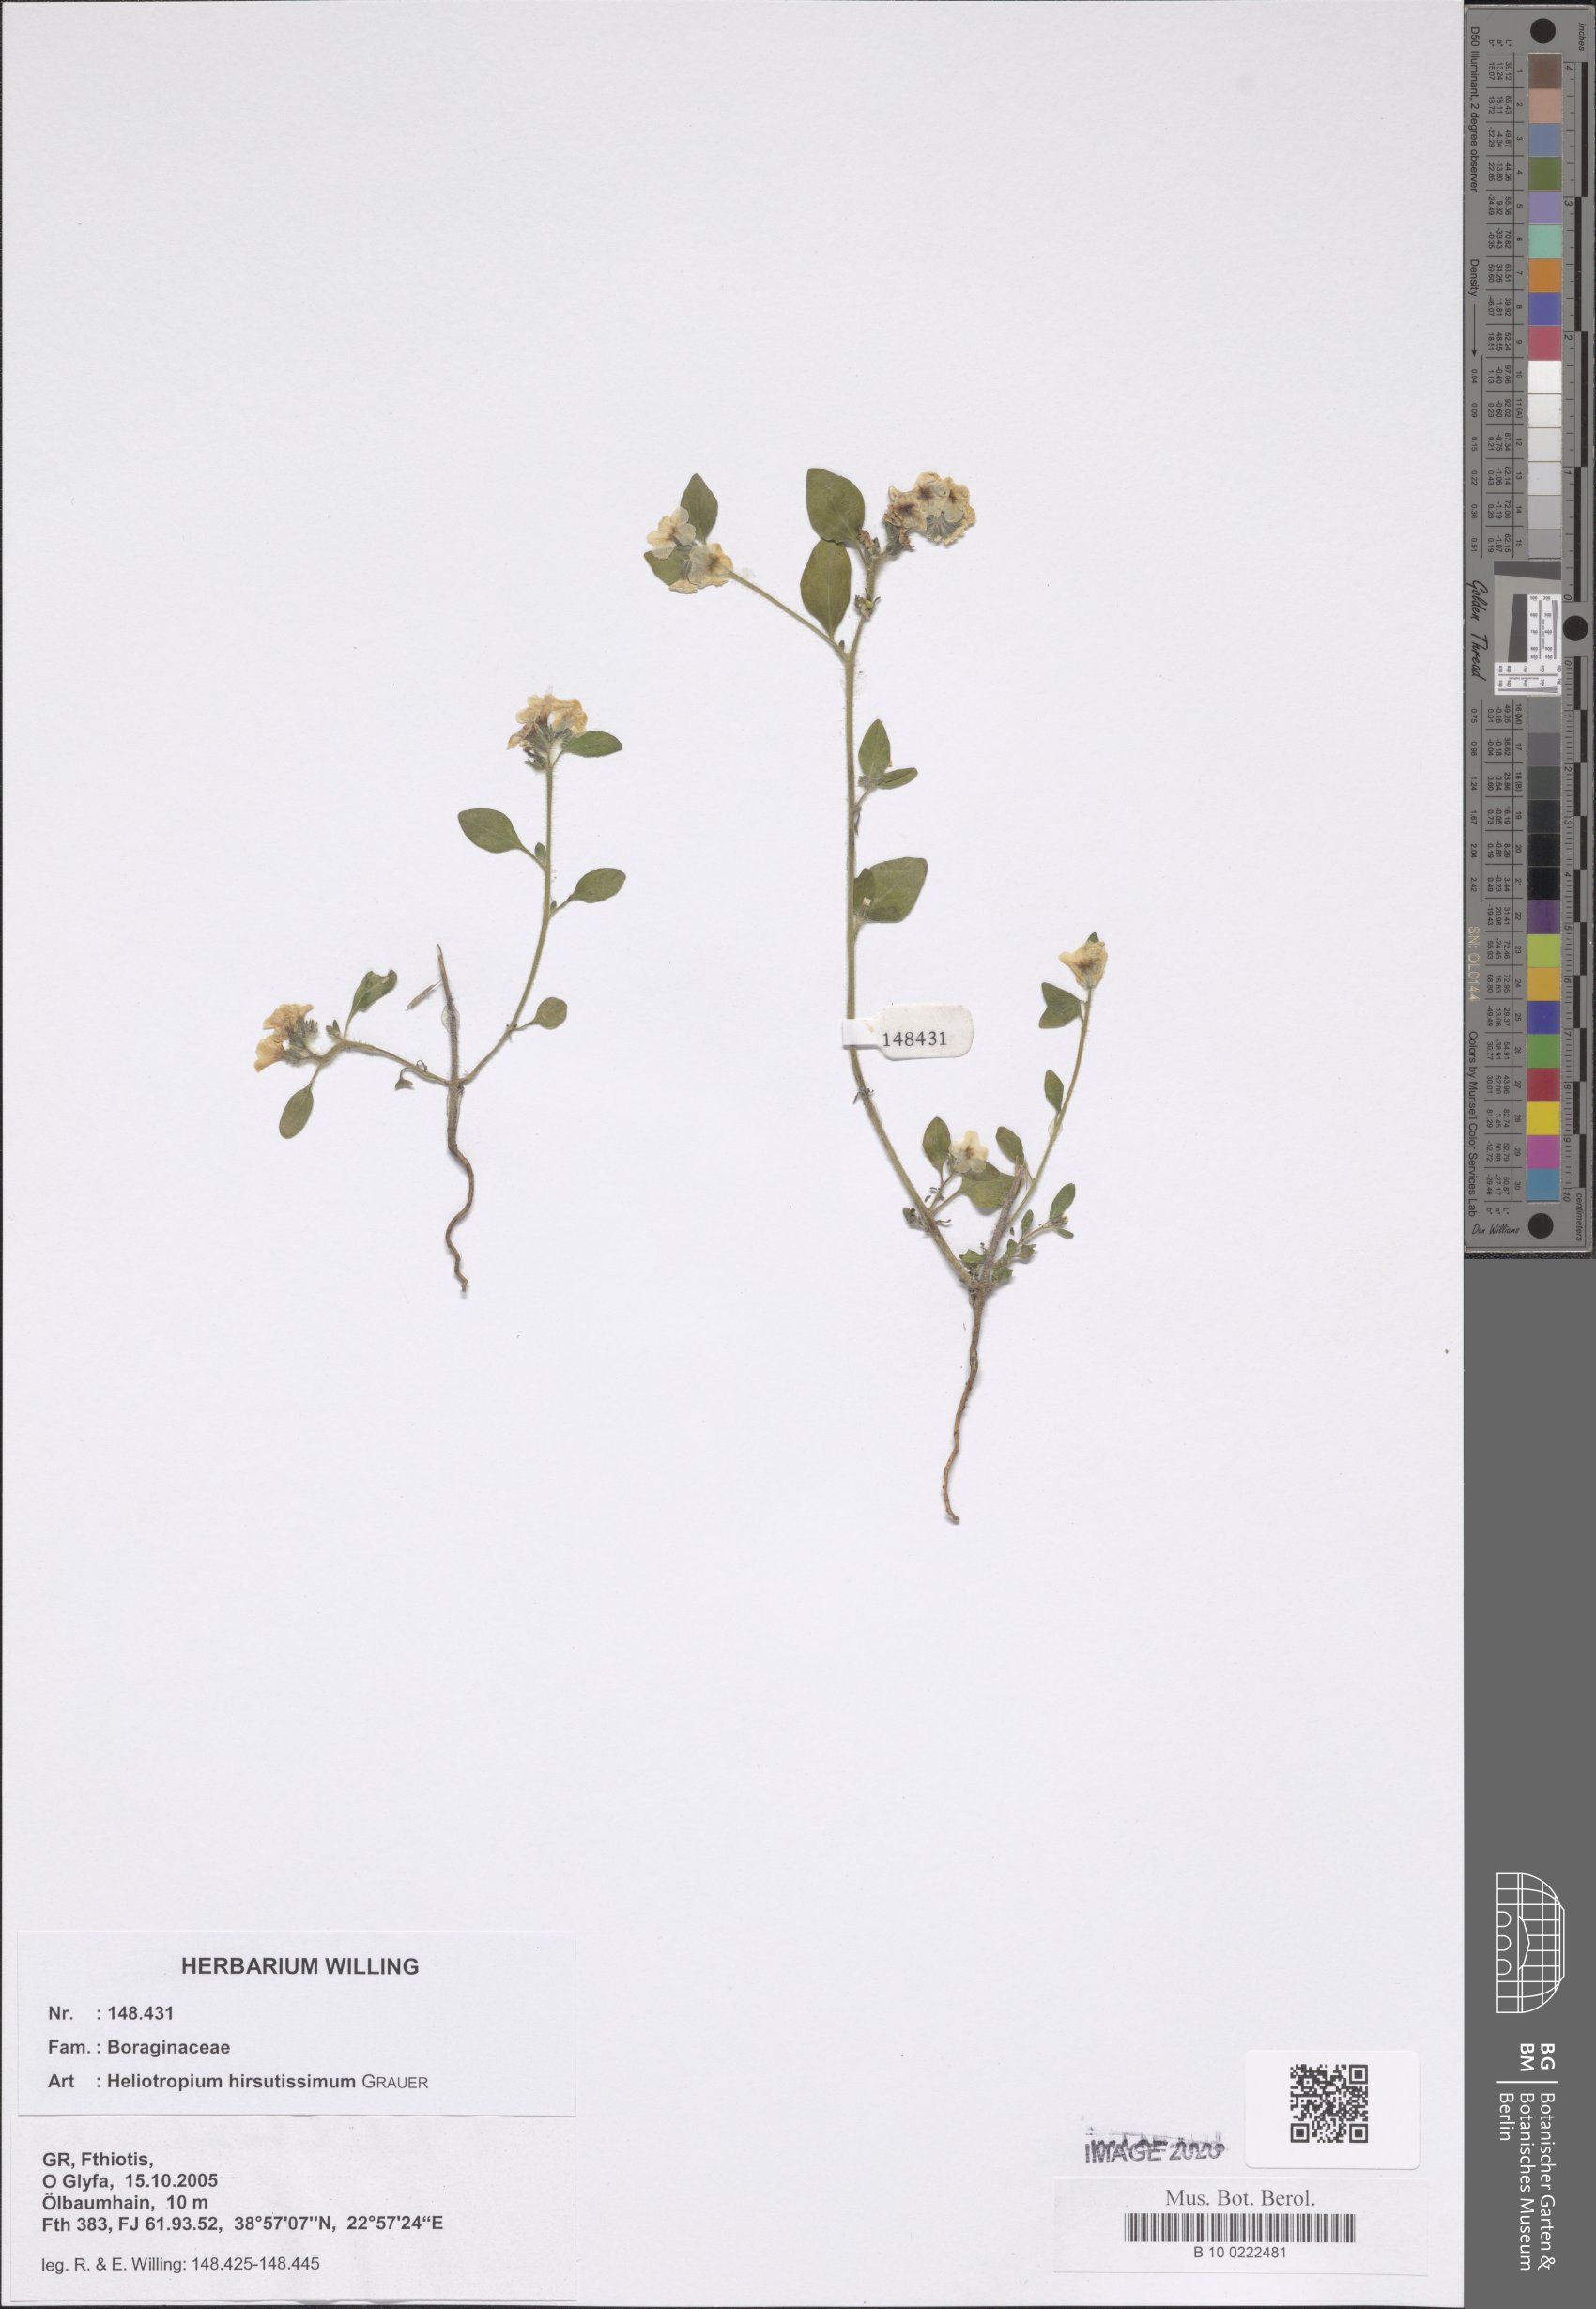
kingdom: Plantae
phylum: Tracheophyta
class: Magnoliopsida
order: Boraginales
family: Heliotropiaceae
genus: Heliotropium
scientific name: Heliotropium hirsutissimum
